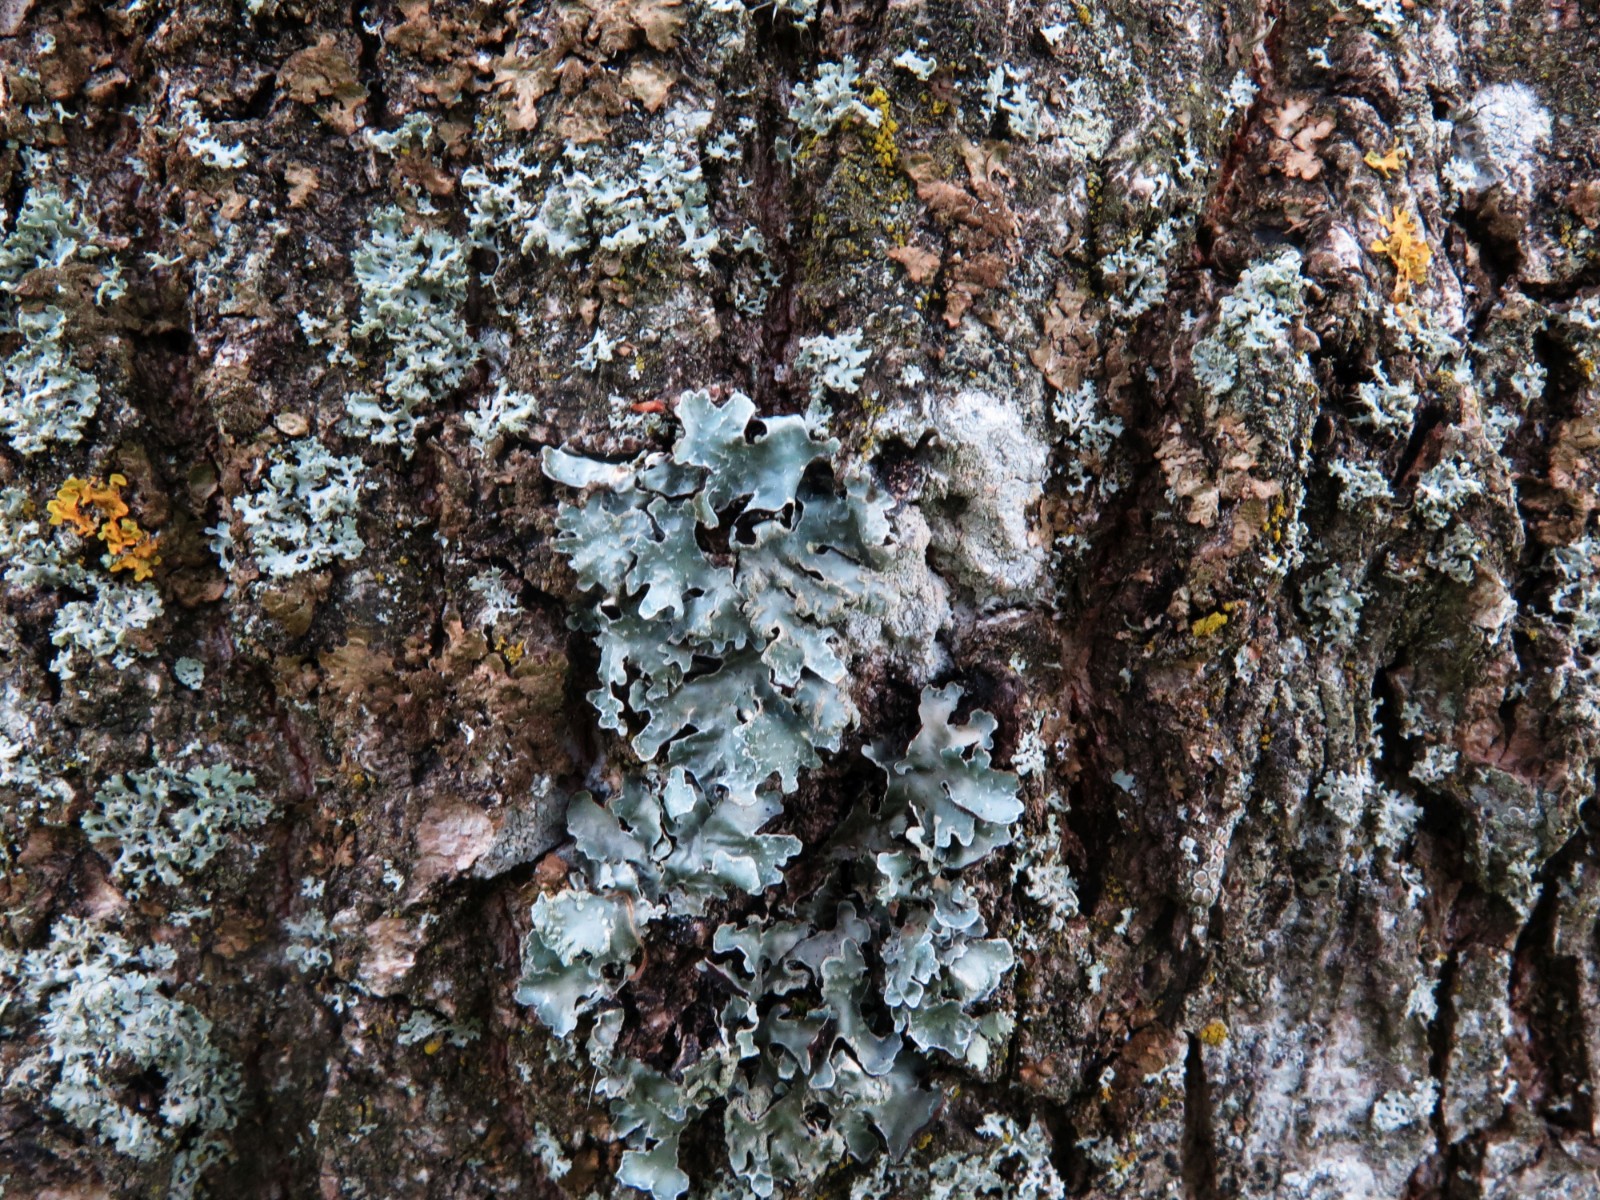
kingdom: Fungi
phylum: Ascomycota
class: Lecanoromycetes
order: Lecanorales
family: Parmeliaceae
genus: Parmelia
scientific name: Parmelia sulcata
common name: rynket skållav
